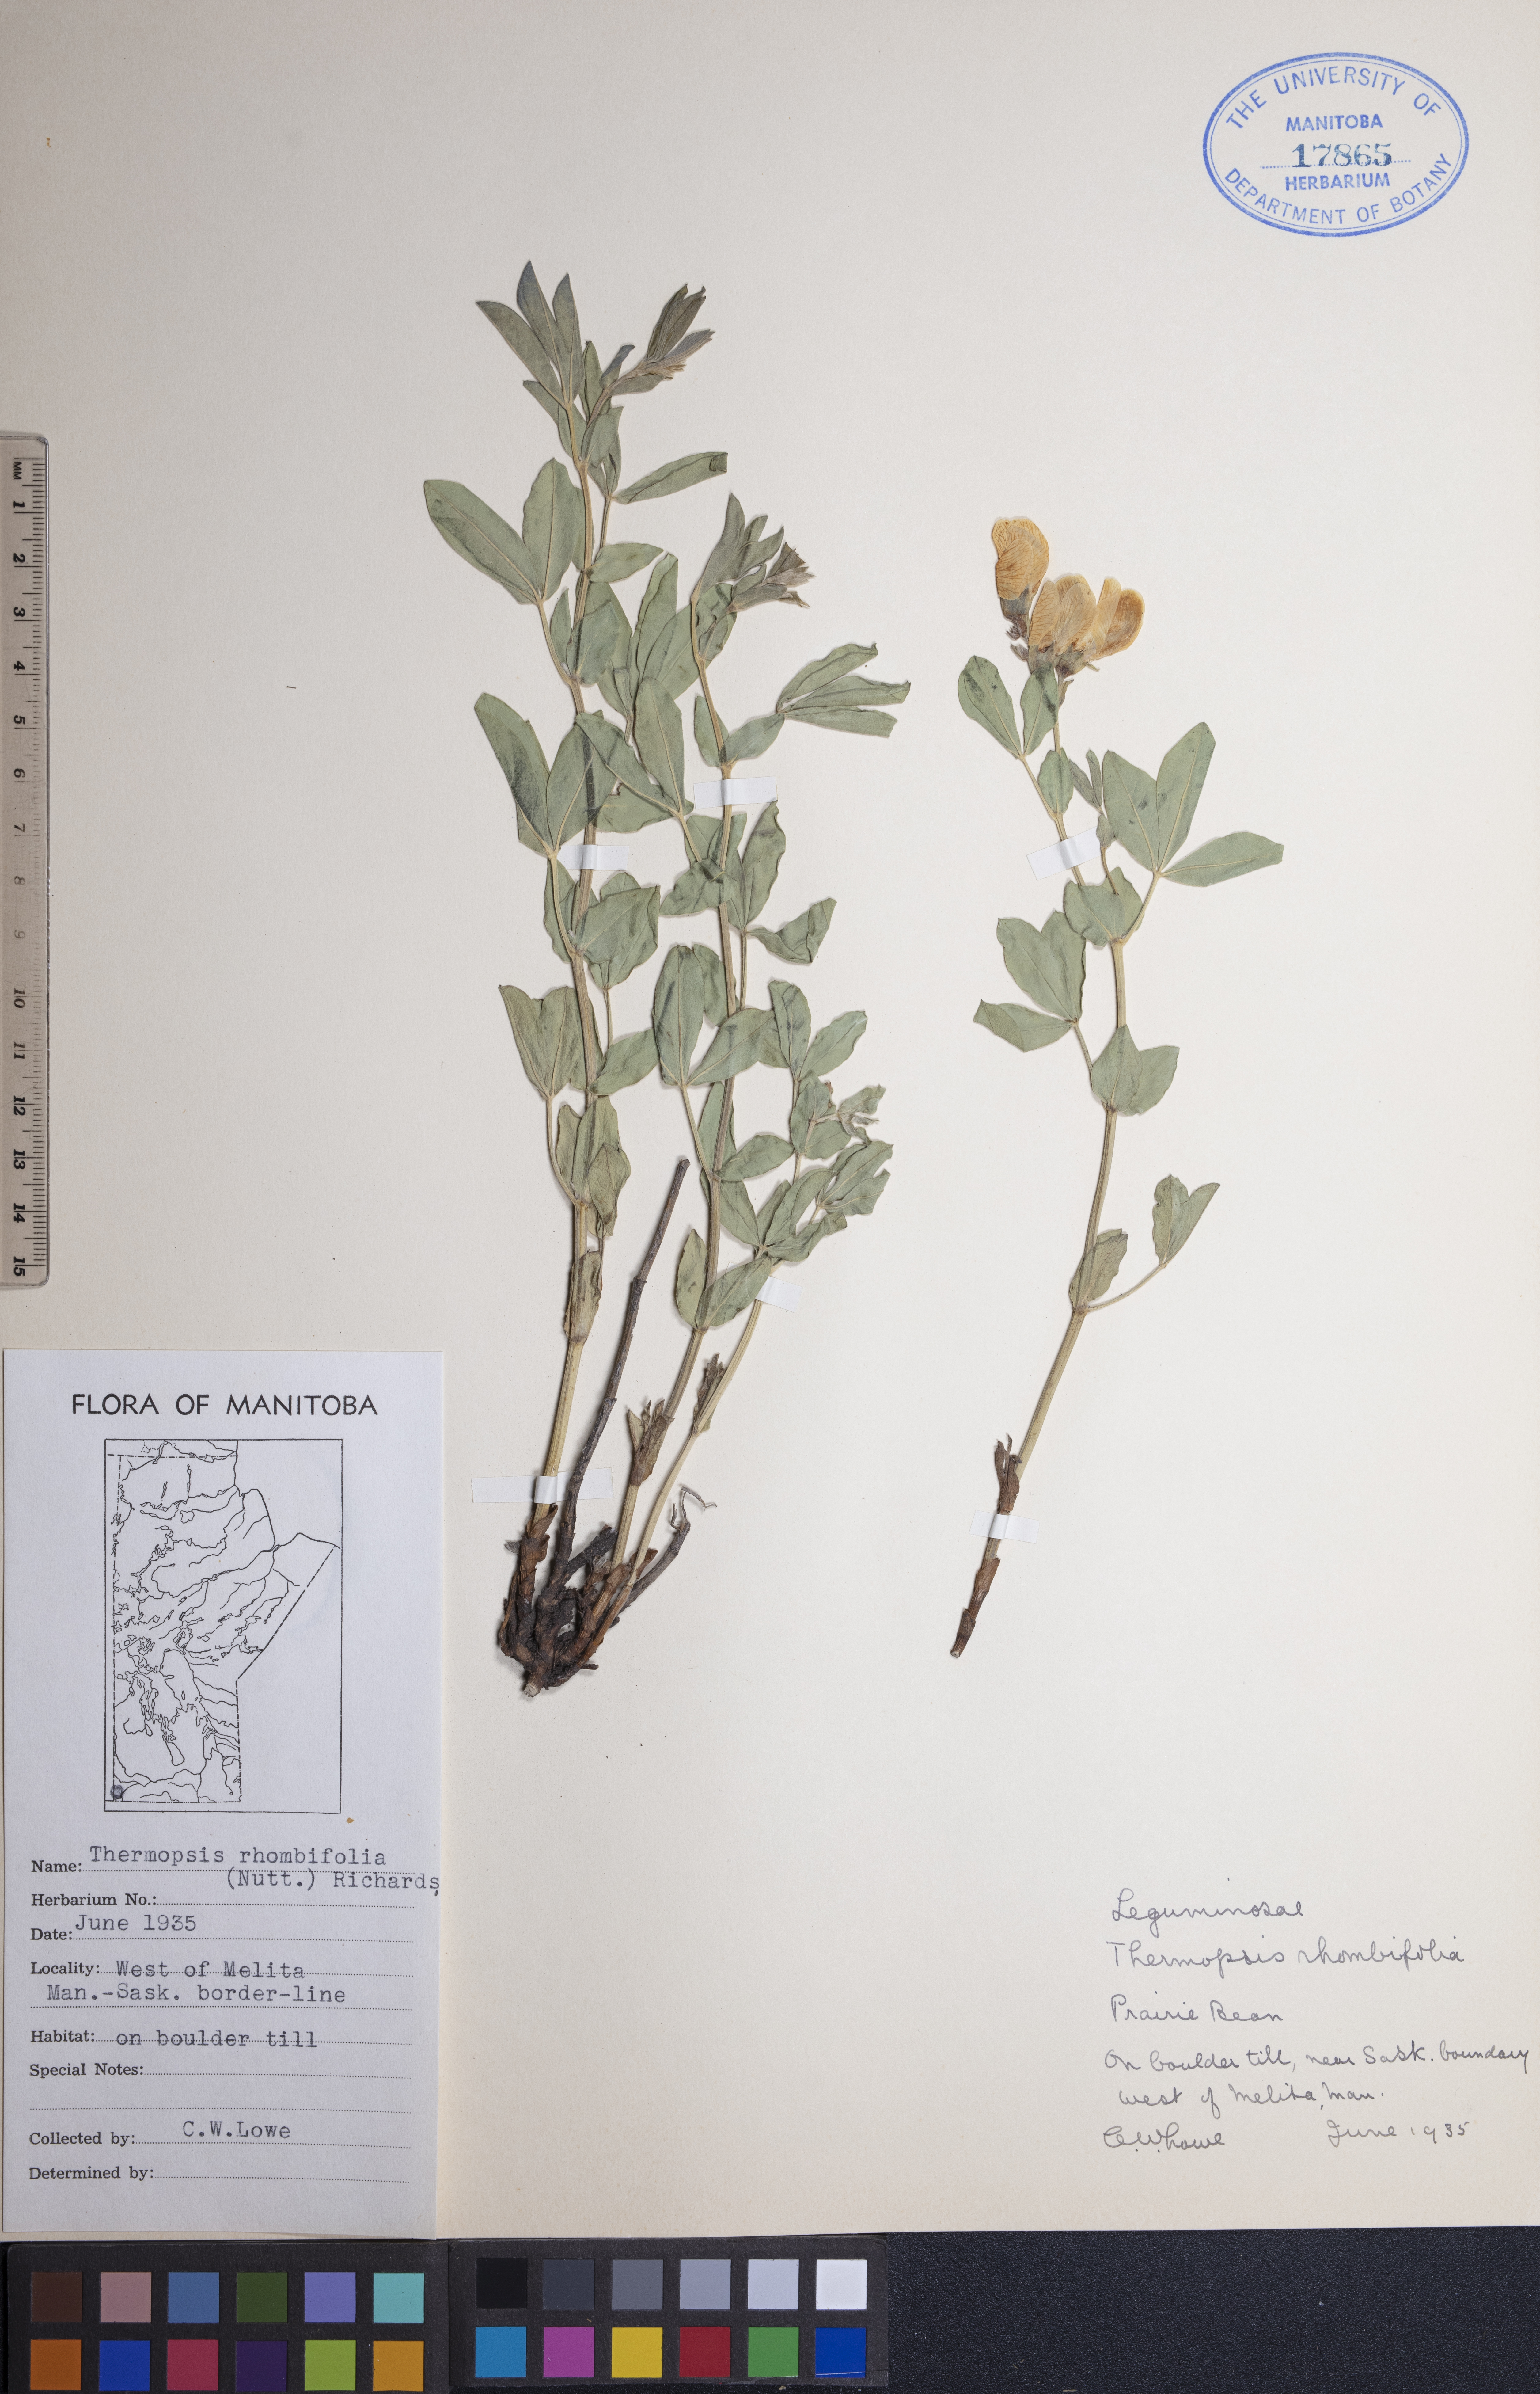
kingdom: Plantae
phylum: Tracheophyta
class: Magnoliopsida
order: Fabales
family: Fabaceae
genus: Thermopsis
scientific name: Thermopsis rhombifolia
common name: Circle-pod-pea
